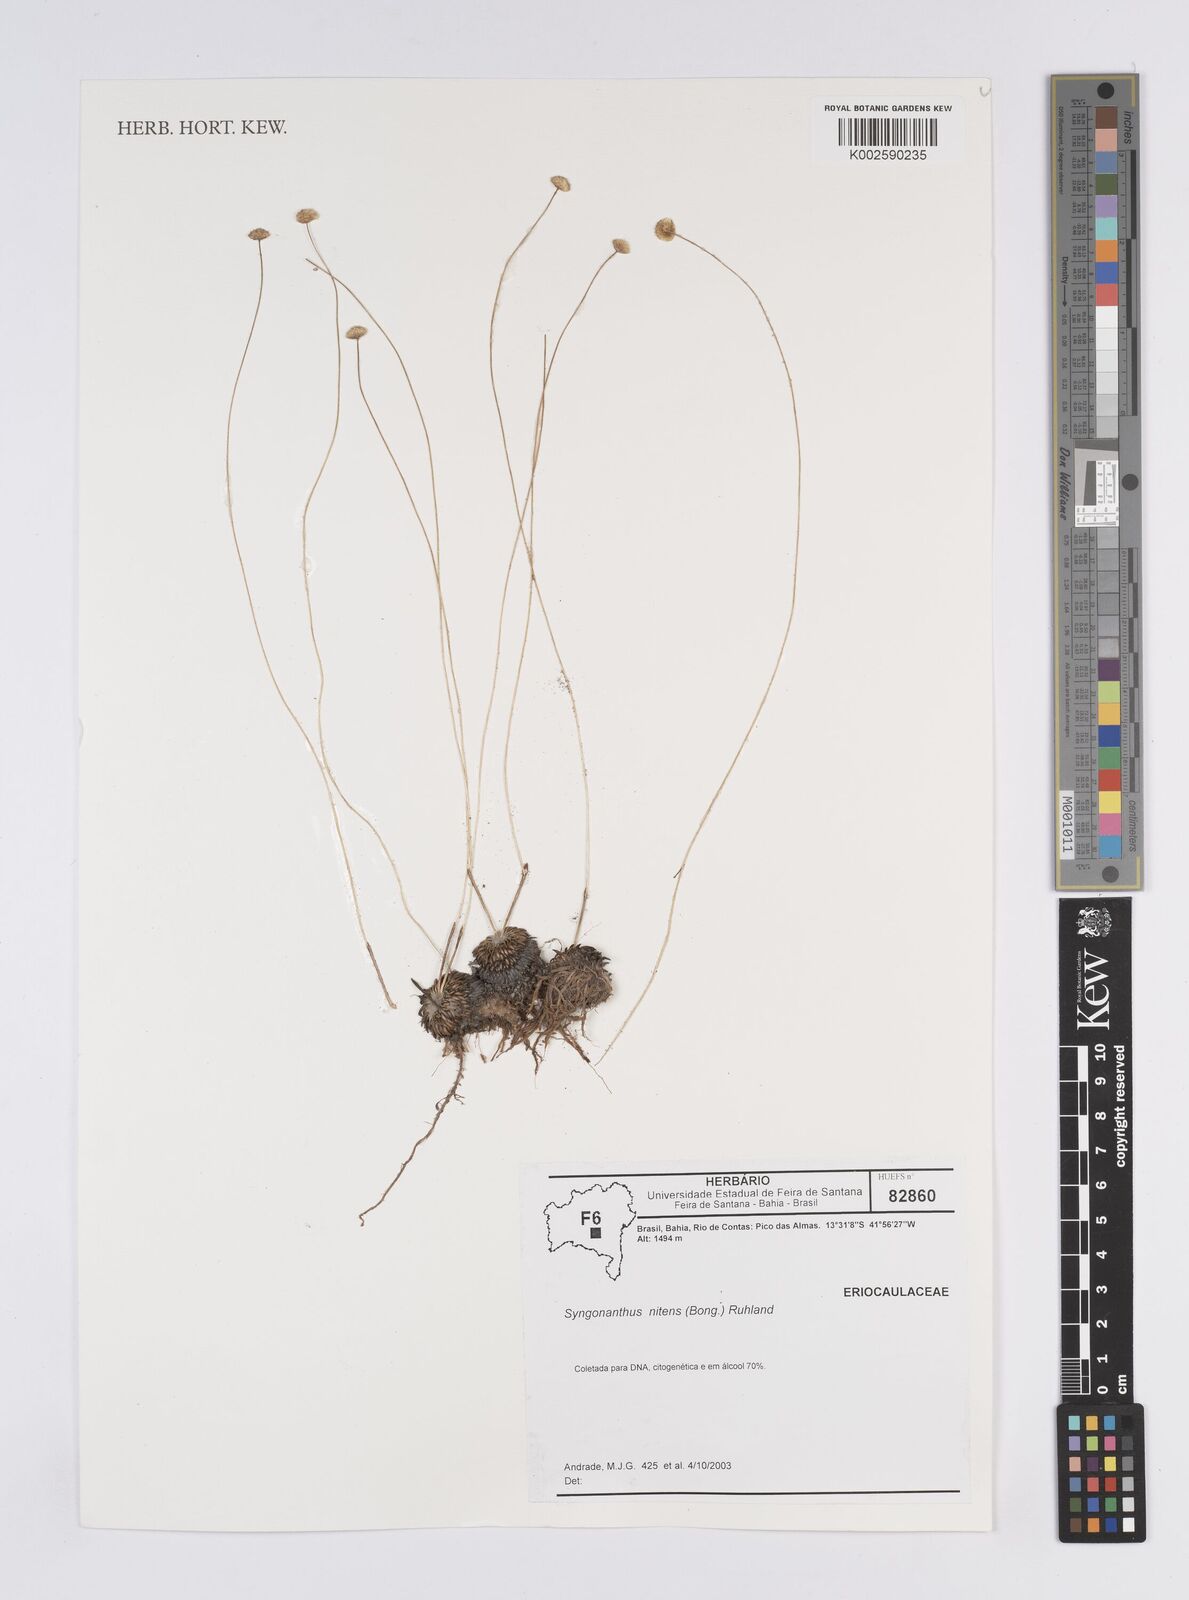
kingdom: Plantae
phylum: Tracheophyta
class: Liliopsida
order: Poales
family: Eriocaulaceae
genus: Syngonanthus
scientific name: Syngonanthus nitens
